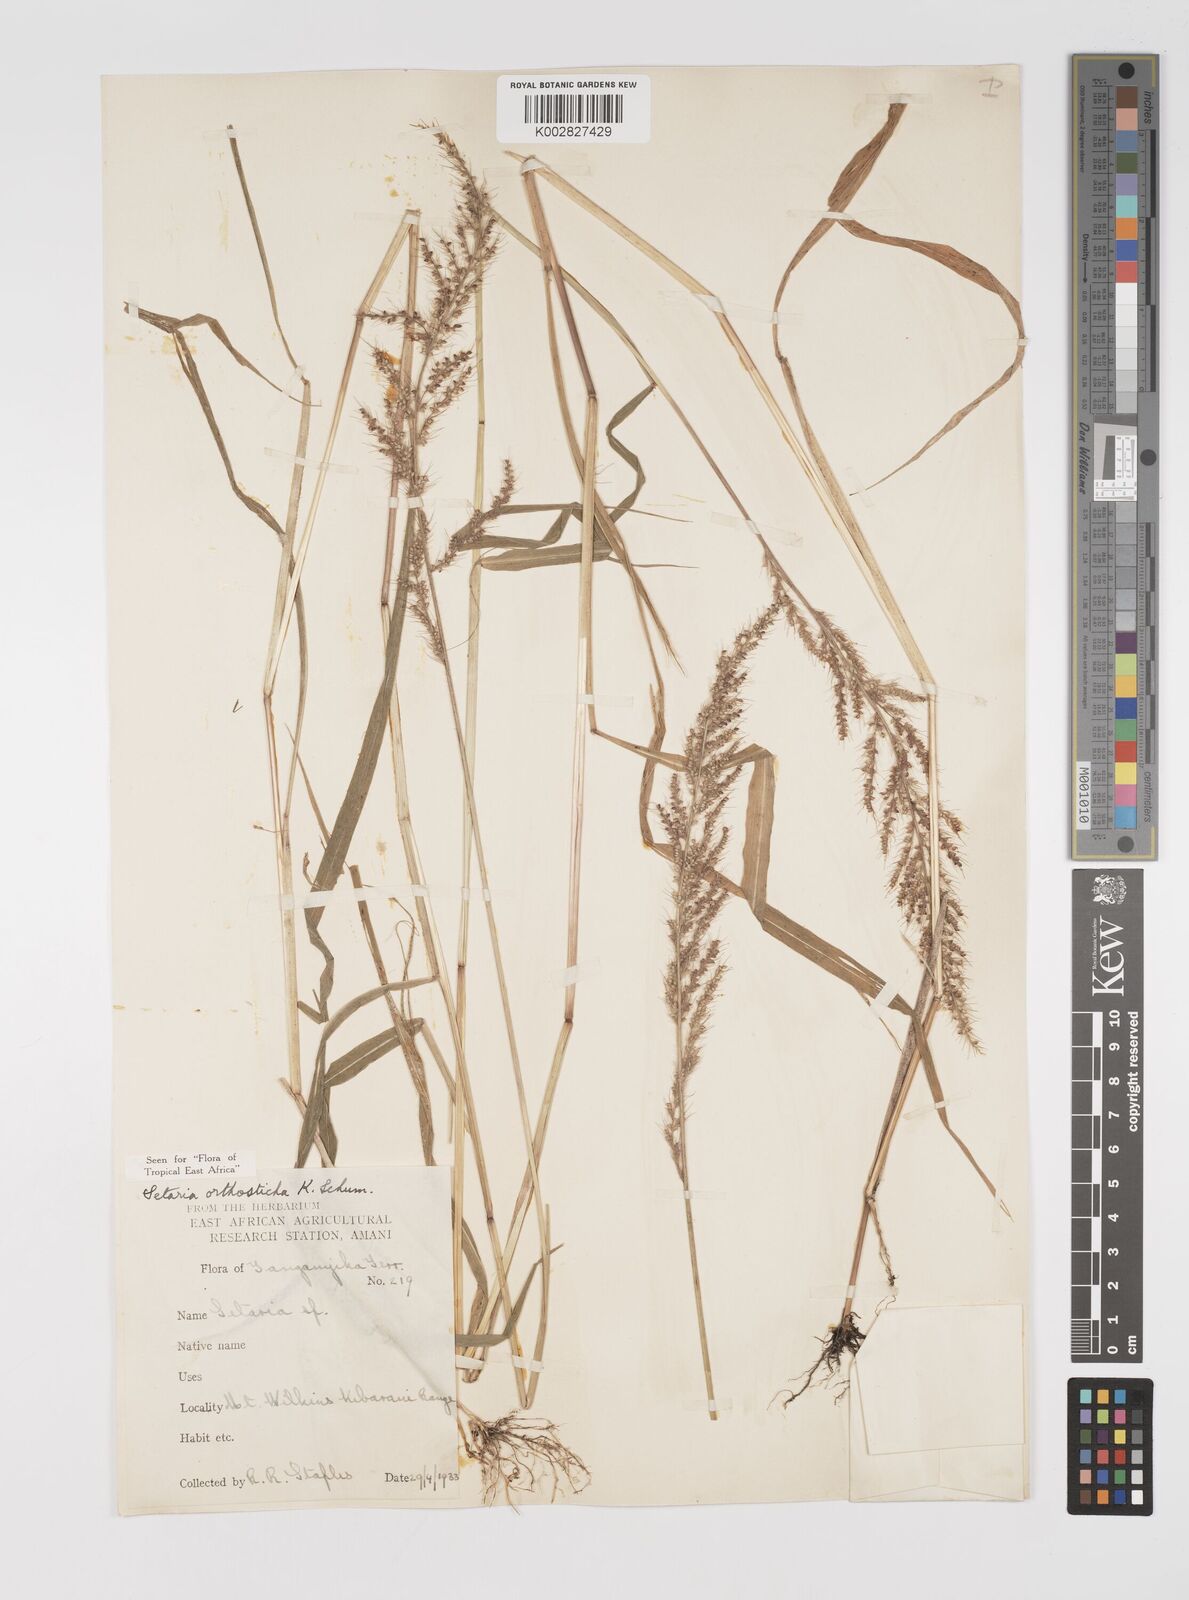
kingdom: Plantae
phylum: Tracheophyta
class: Liliopsida
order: Poales
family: Poaceae
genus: Setaria
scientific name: Setaria orthosticha
